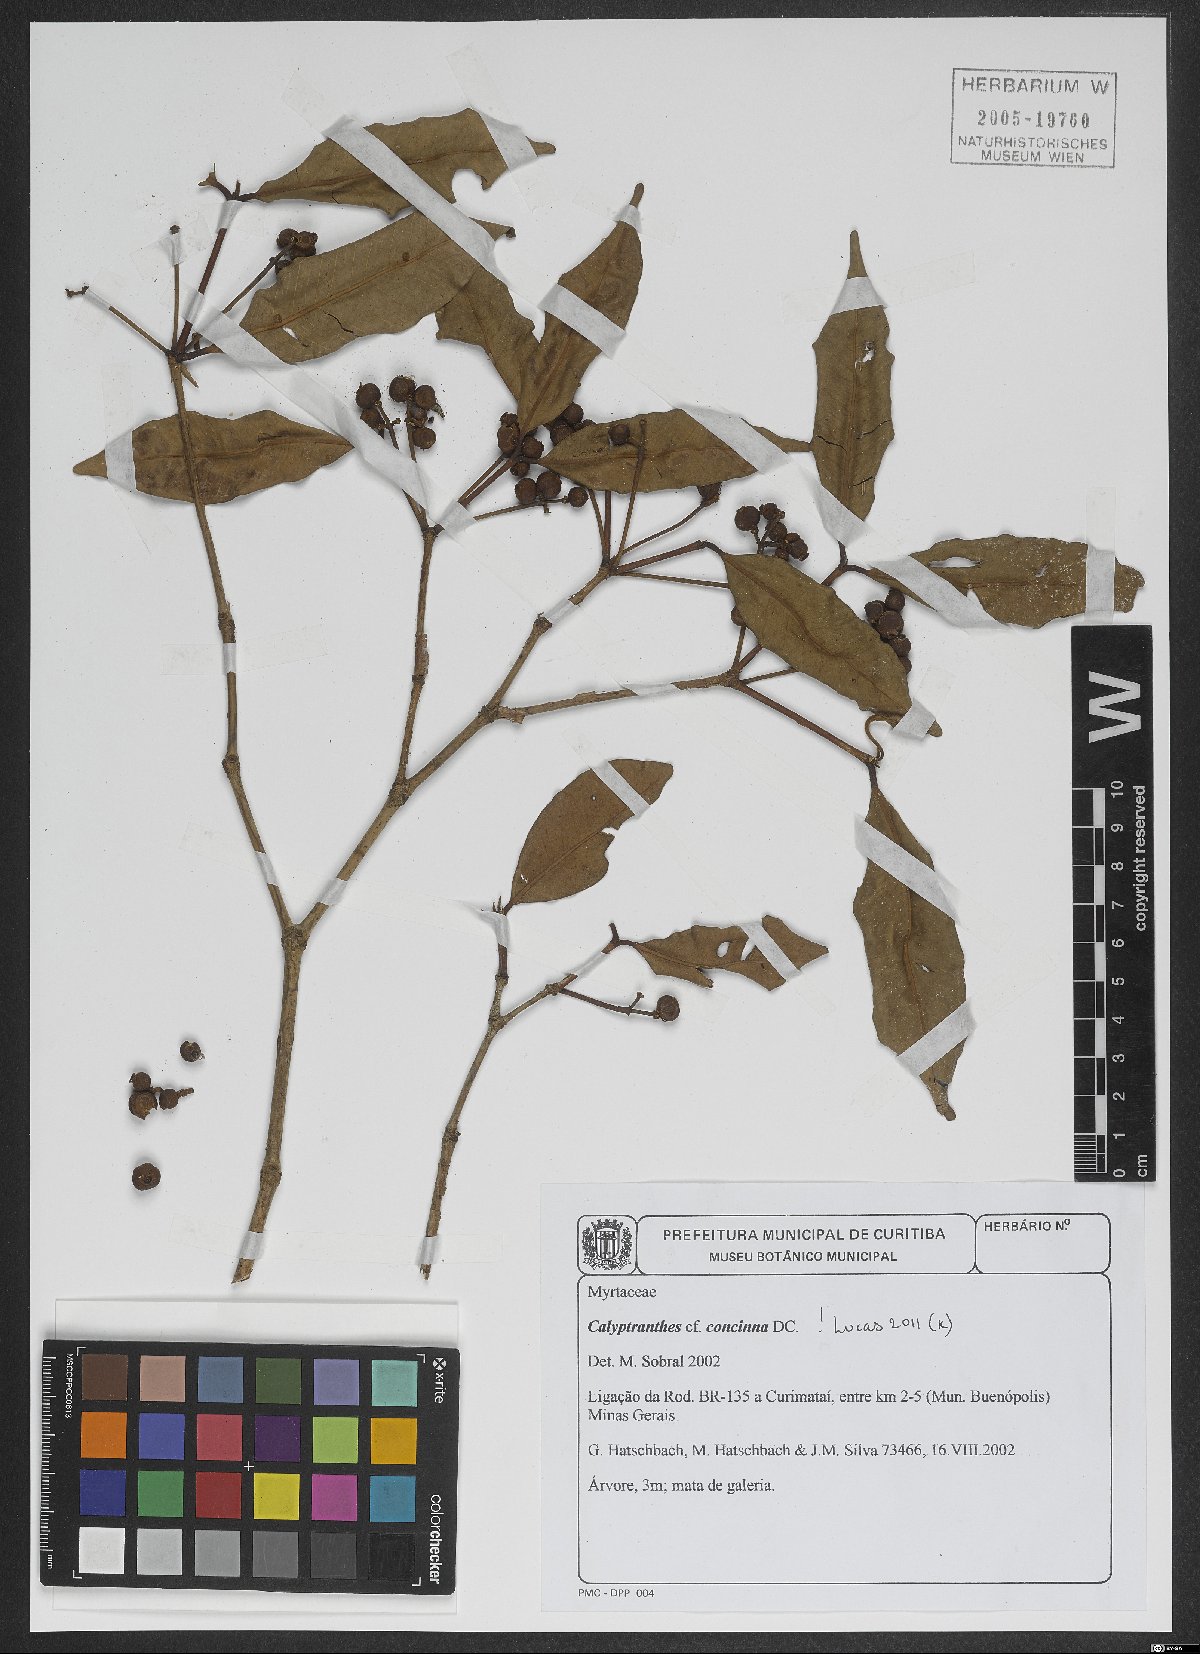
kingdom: Plantae
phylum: Tracheophyta
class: Magnoliopsida
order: Myrtales
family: Myrtaceae
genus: Myrcia
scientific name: Myrcia cruciflora
